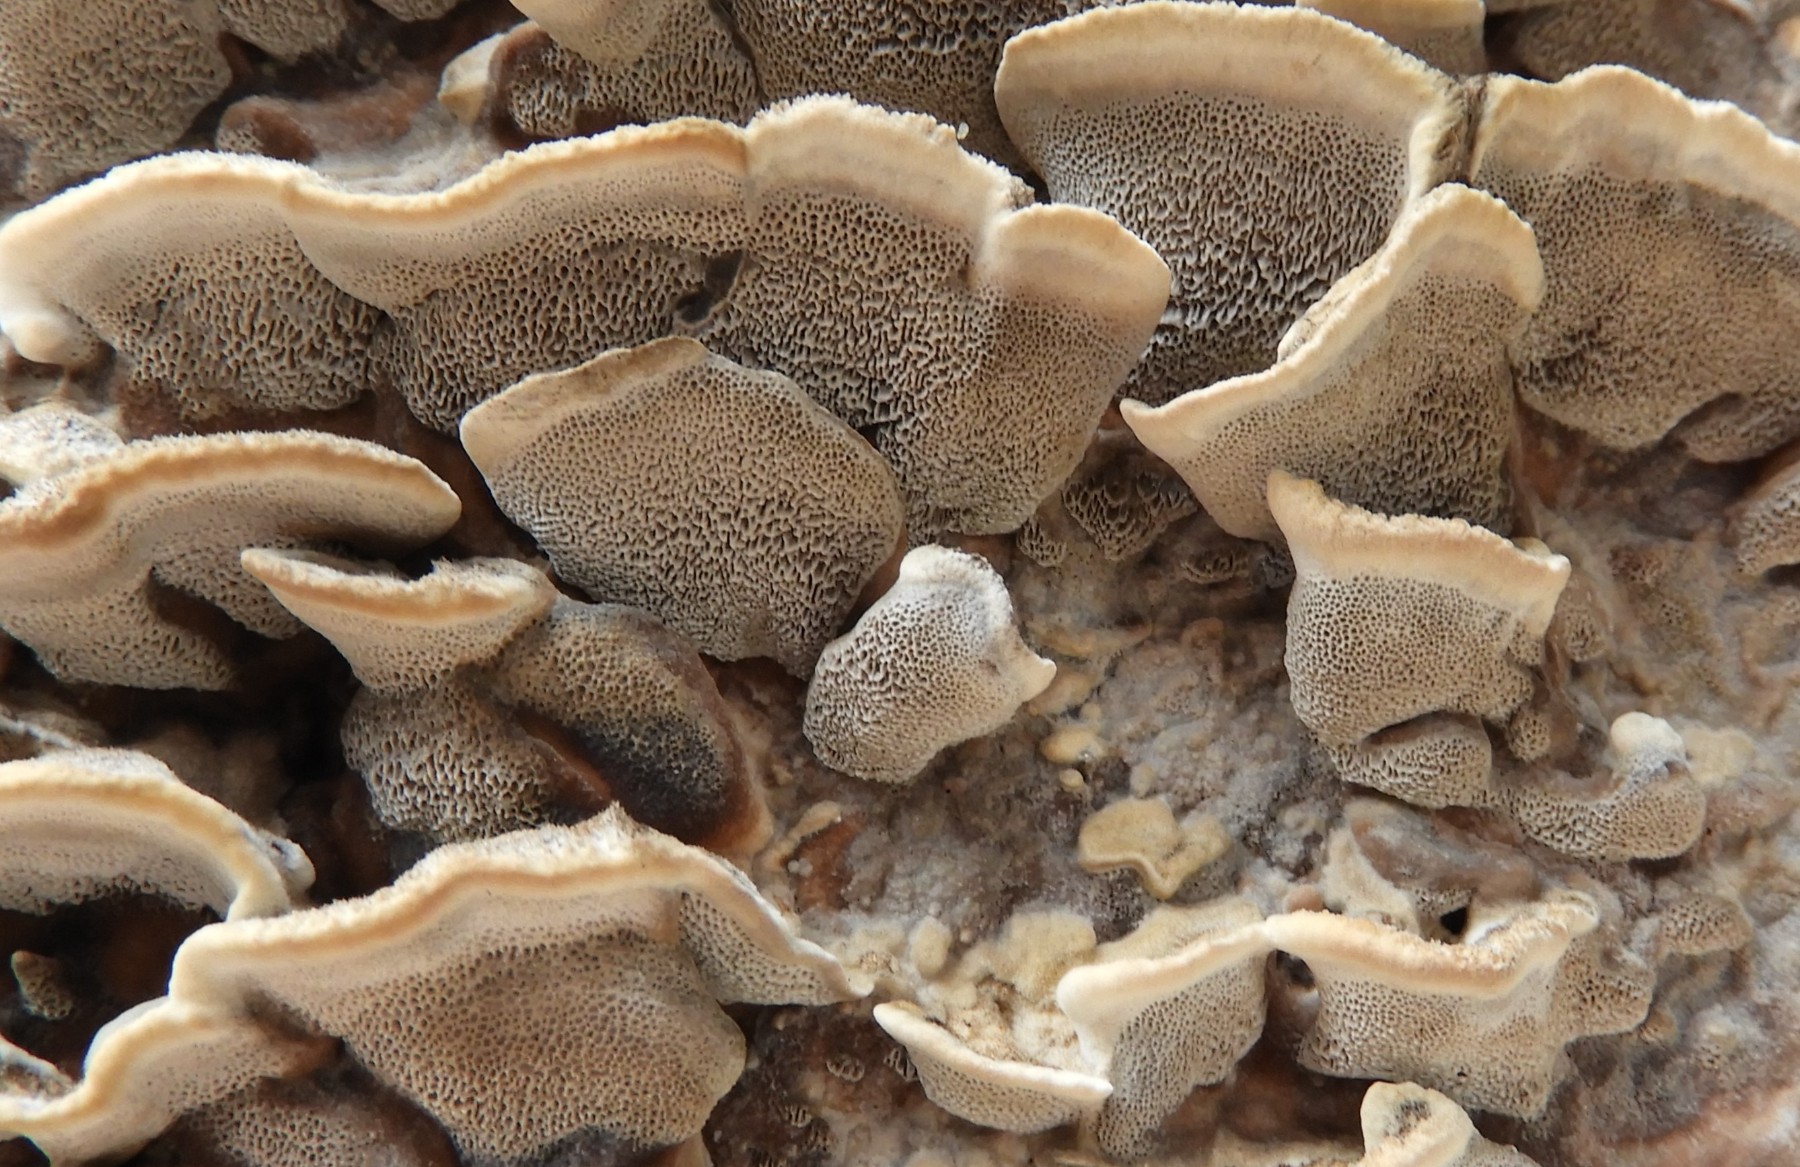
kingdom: Fungi
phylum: Basidiomycota
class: Agaricomycetes
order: Polyporales
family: Phanerochaetaceae
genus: Bjerkandera
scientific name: Bjerkandera adusta
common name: sveden sodporesvamp
